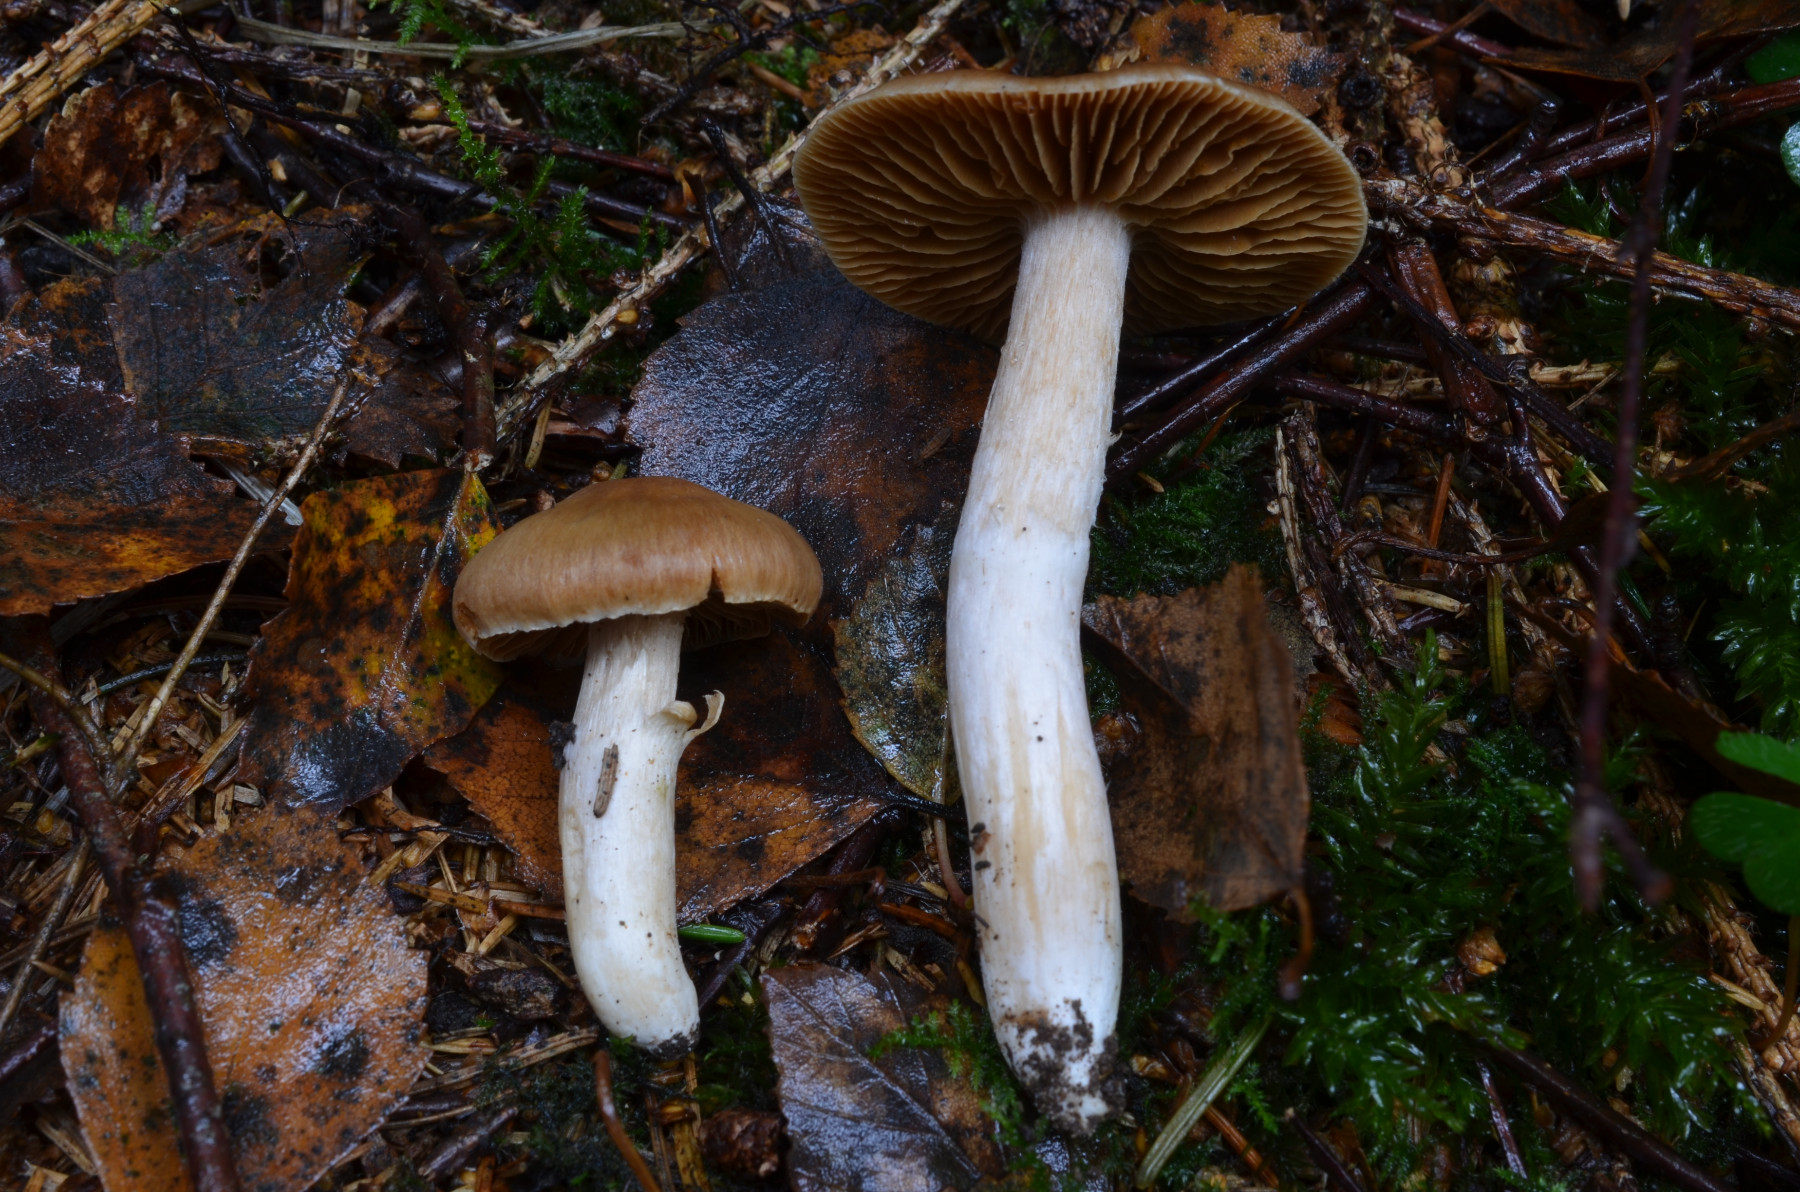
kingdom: Fungi
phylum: Basidiomycota
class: Agaricomycetes
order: Agaricales
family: Cortinariaceae
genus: Cortinarius
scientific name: Cortinarius acetosus
